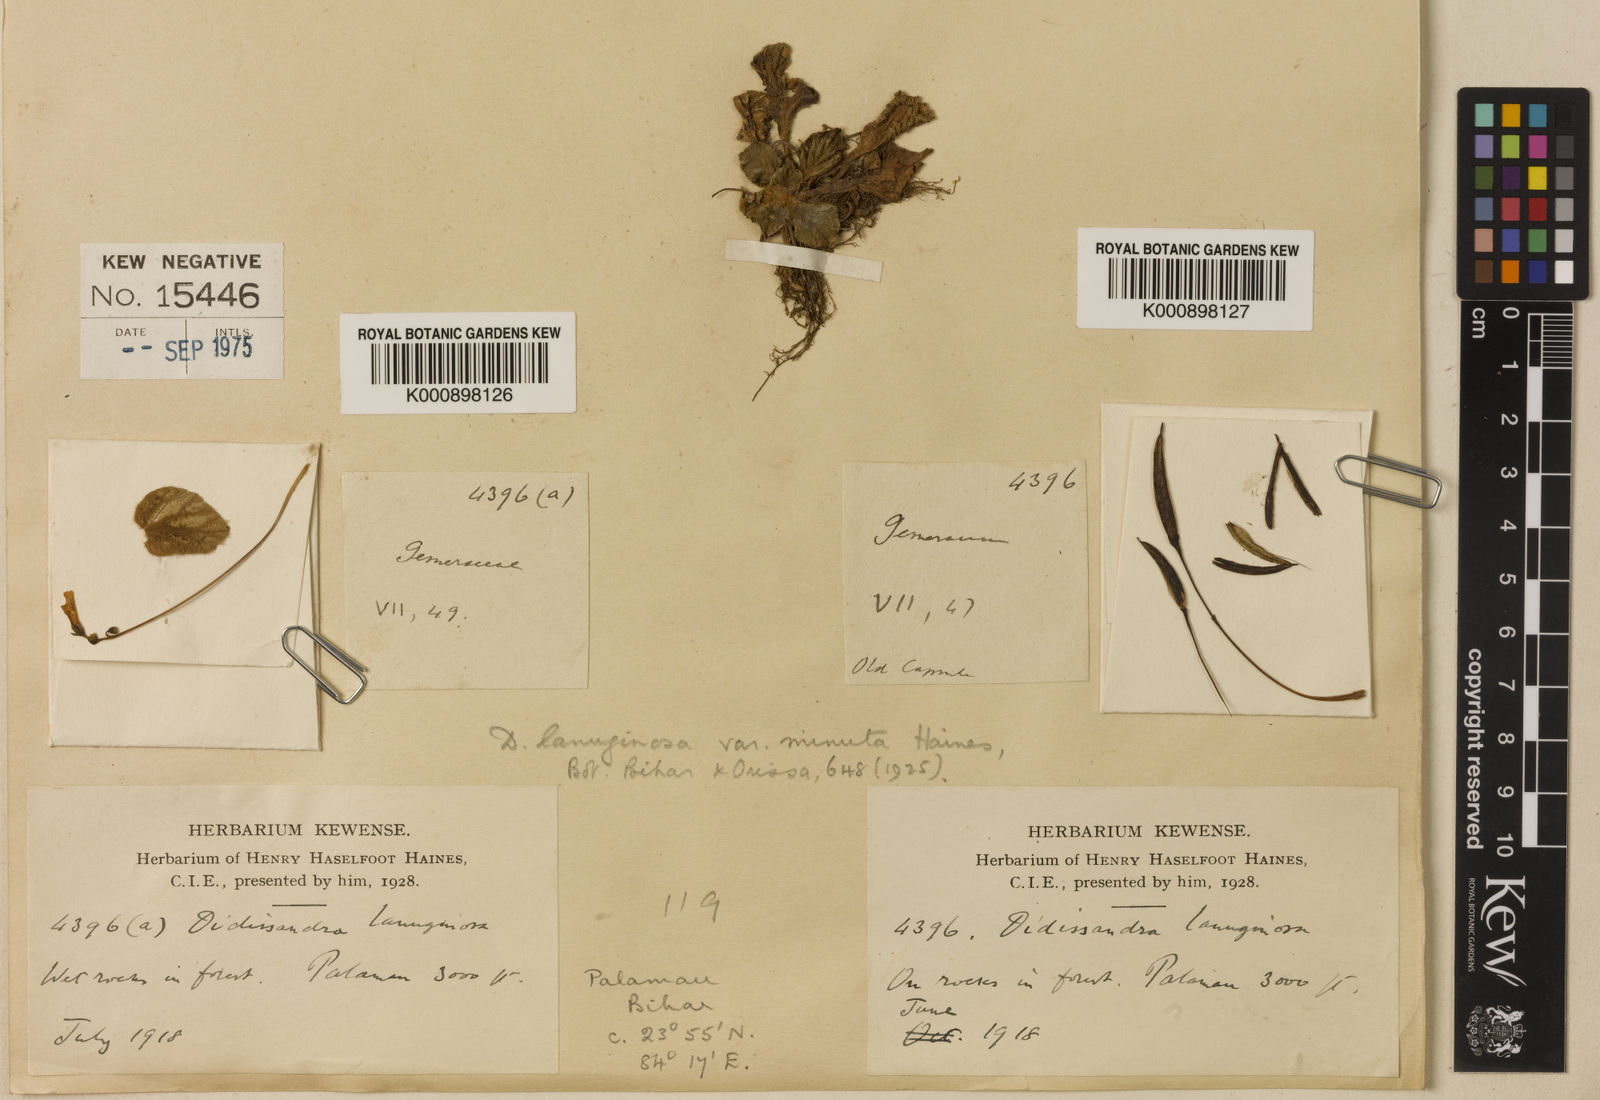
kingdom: Plantae
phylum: Tracheophyta
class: Magnoliopsida
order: Lamiales
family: Gesneriaceae
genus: Corallodiscus
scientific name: Corallodiscus lanuginosus
